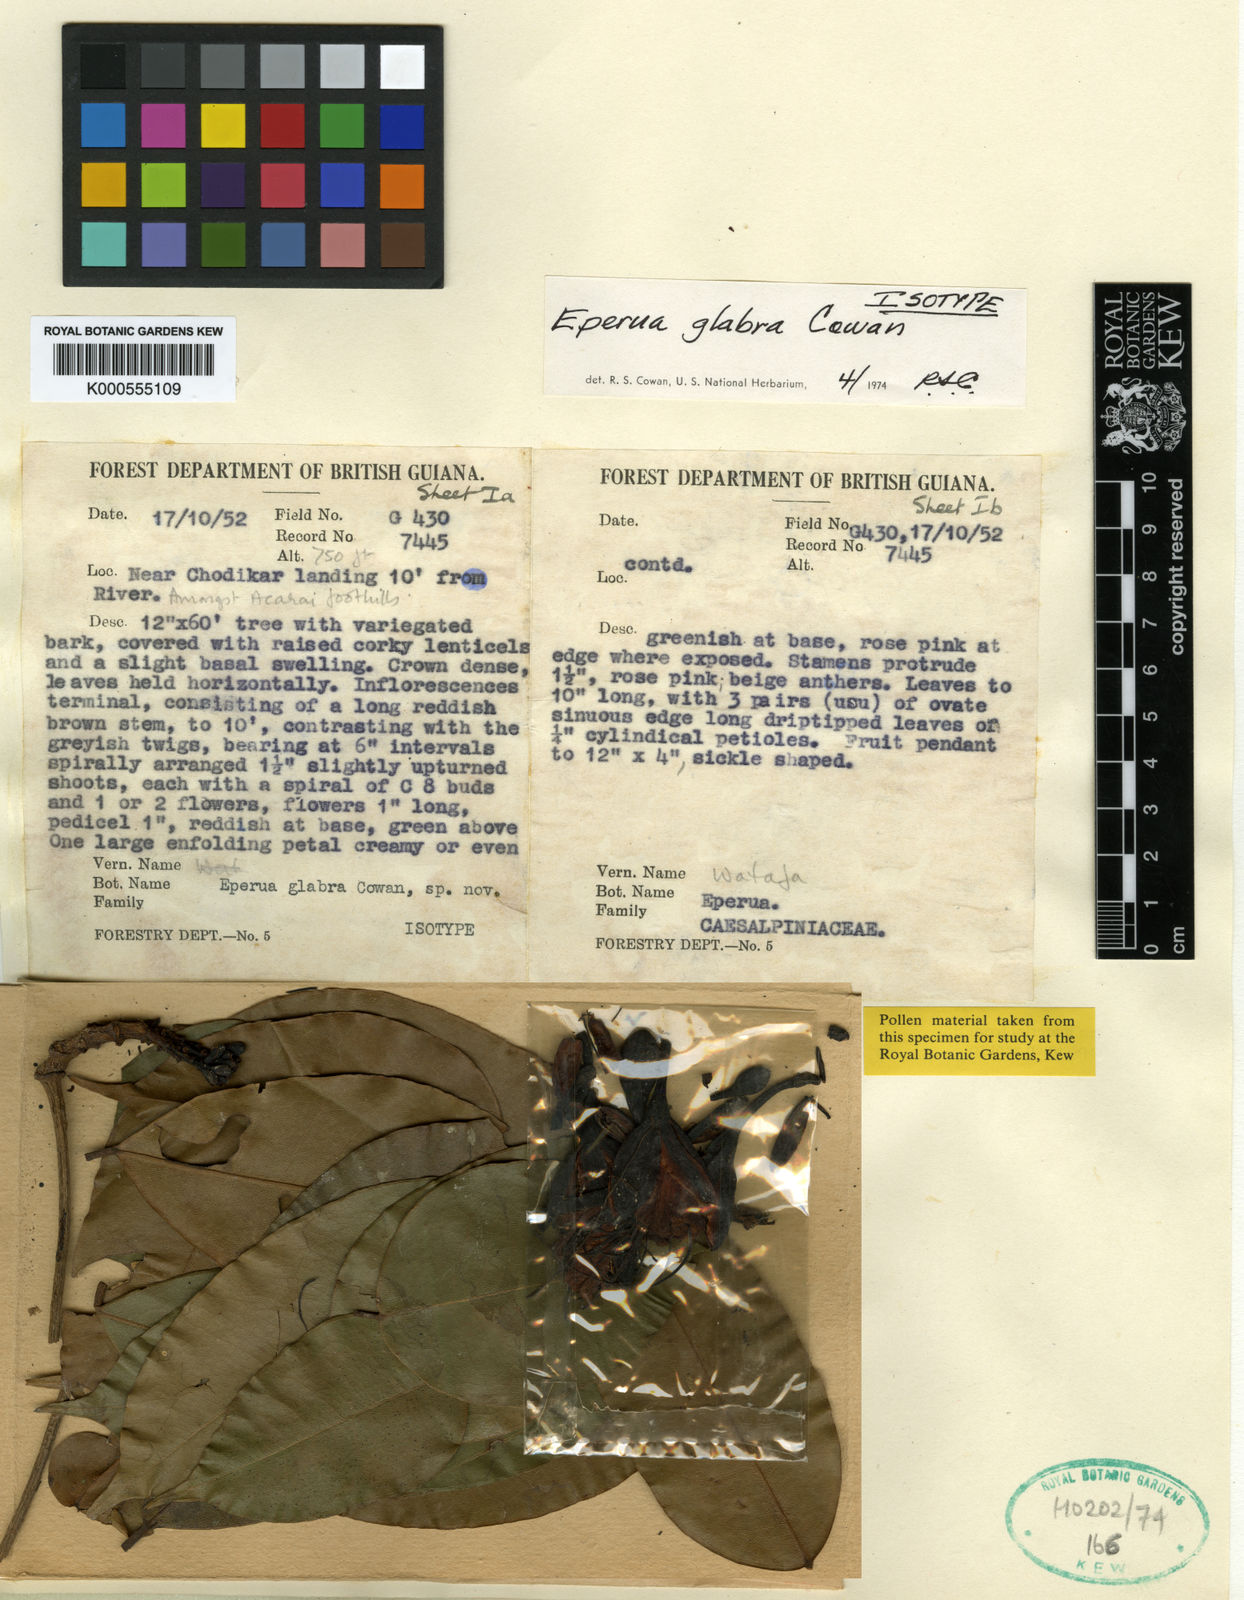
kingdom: Plantae
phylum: Tracheophyta
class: Magnoliopsida
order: Fabales
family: Fabaceae
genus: Eperua
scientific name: Eperua glabra
